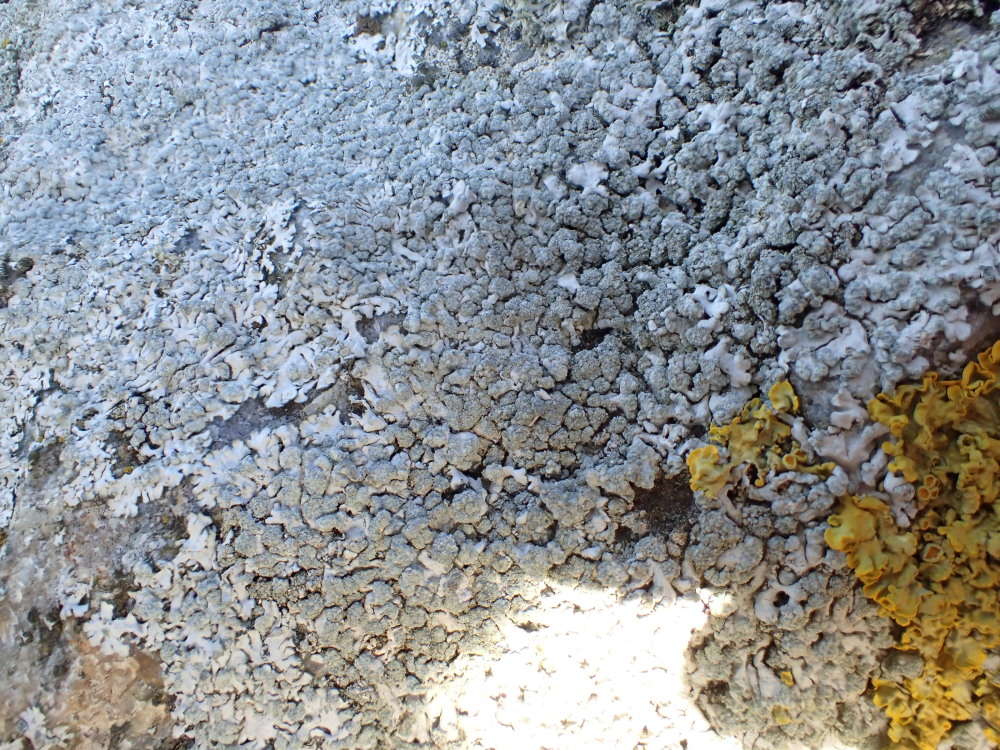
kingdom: Fungi
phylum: Ascomycota
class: Lecanoromycetes
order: Caliciales
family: Physciaceae
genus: Physcia
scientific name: Physcia caesia
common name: blågrå rosetlav
